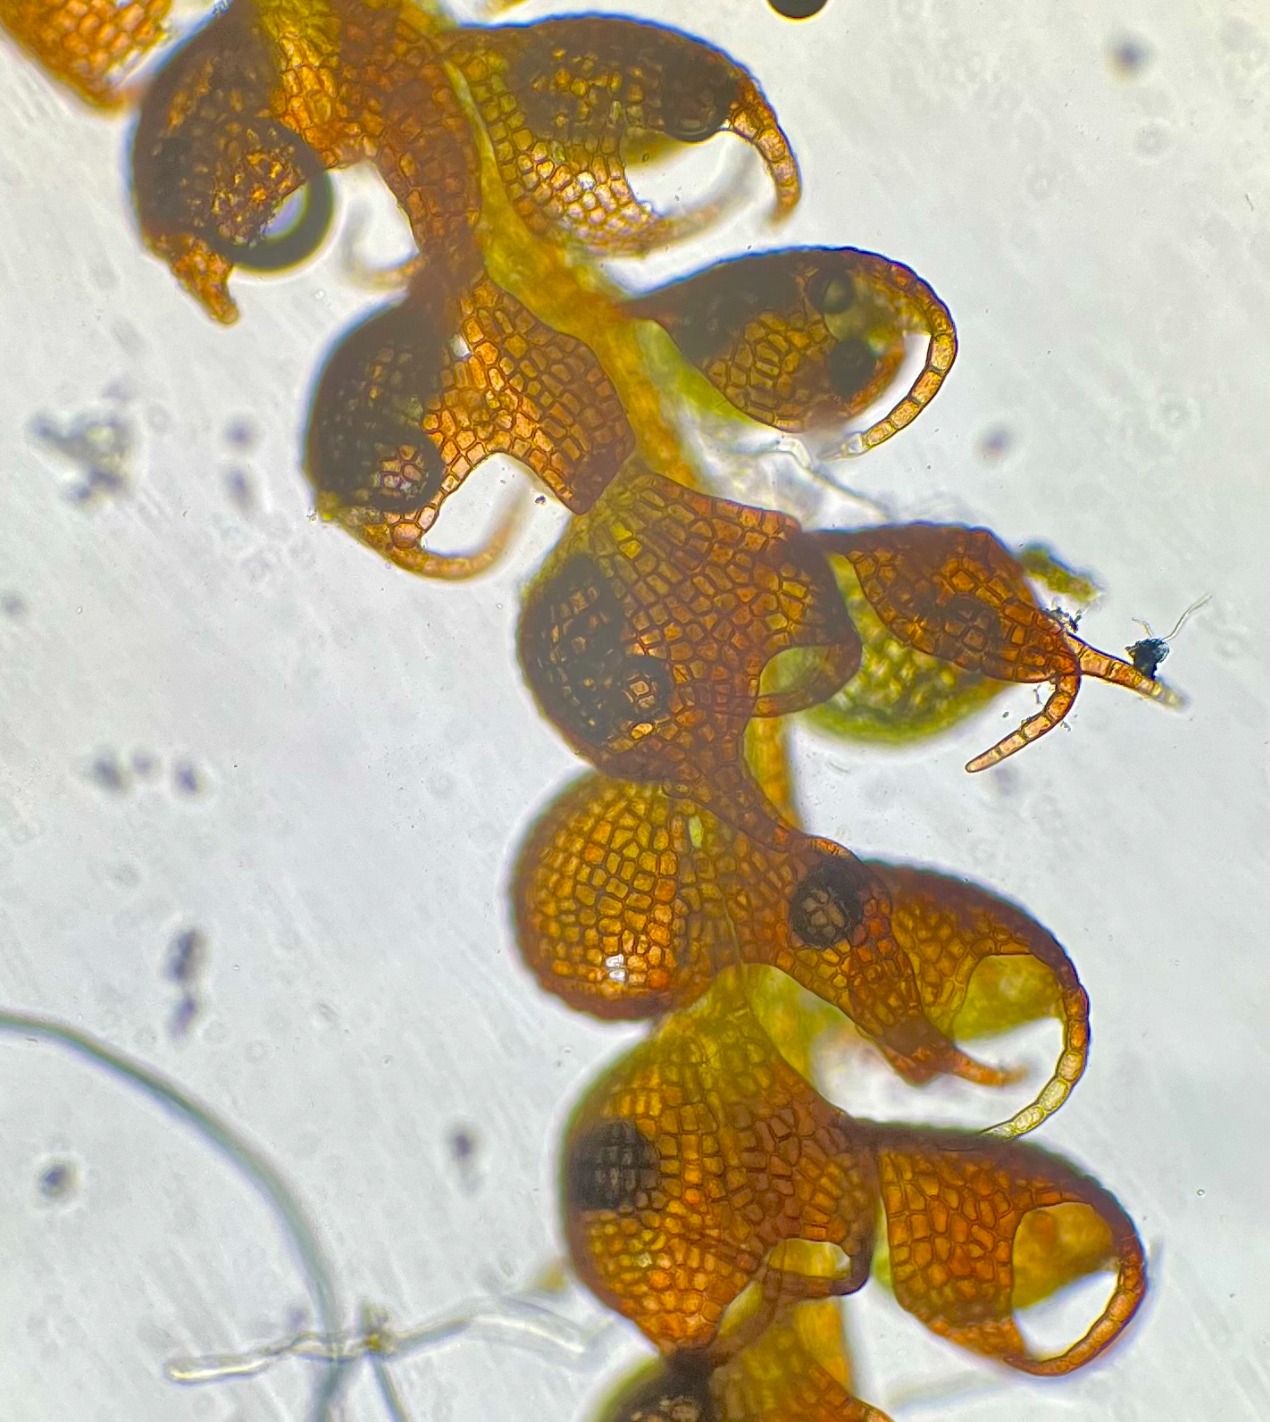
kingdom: Plantae
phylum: Marchantiophyta
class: Jungermanniopsida
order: Jungermanniales
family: Cephaloziaceae
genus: Nowellia
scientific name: Nowellia curvifolia
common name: Krumbladet stødmos
